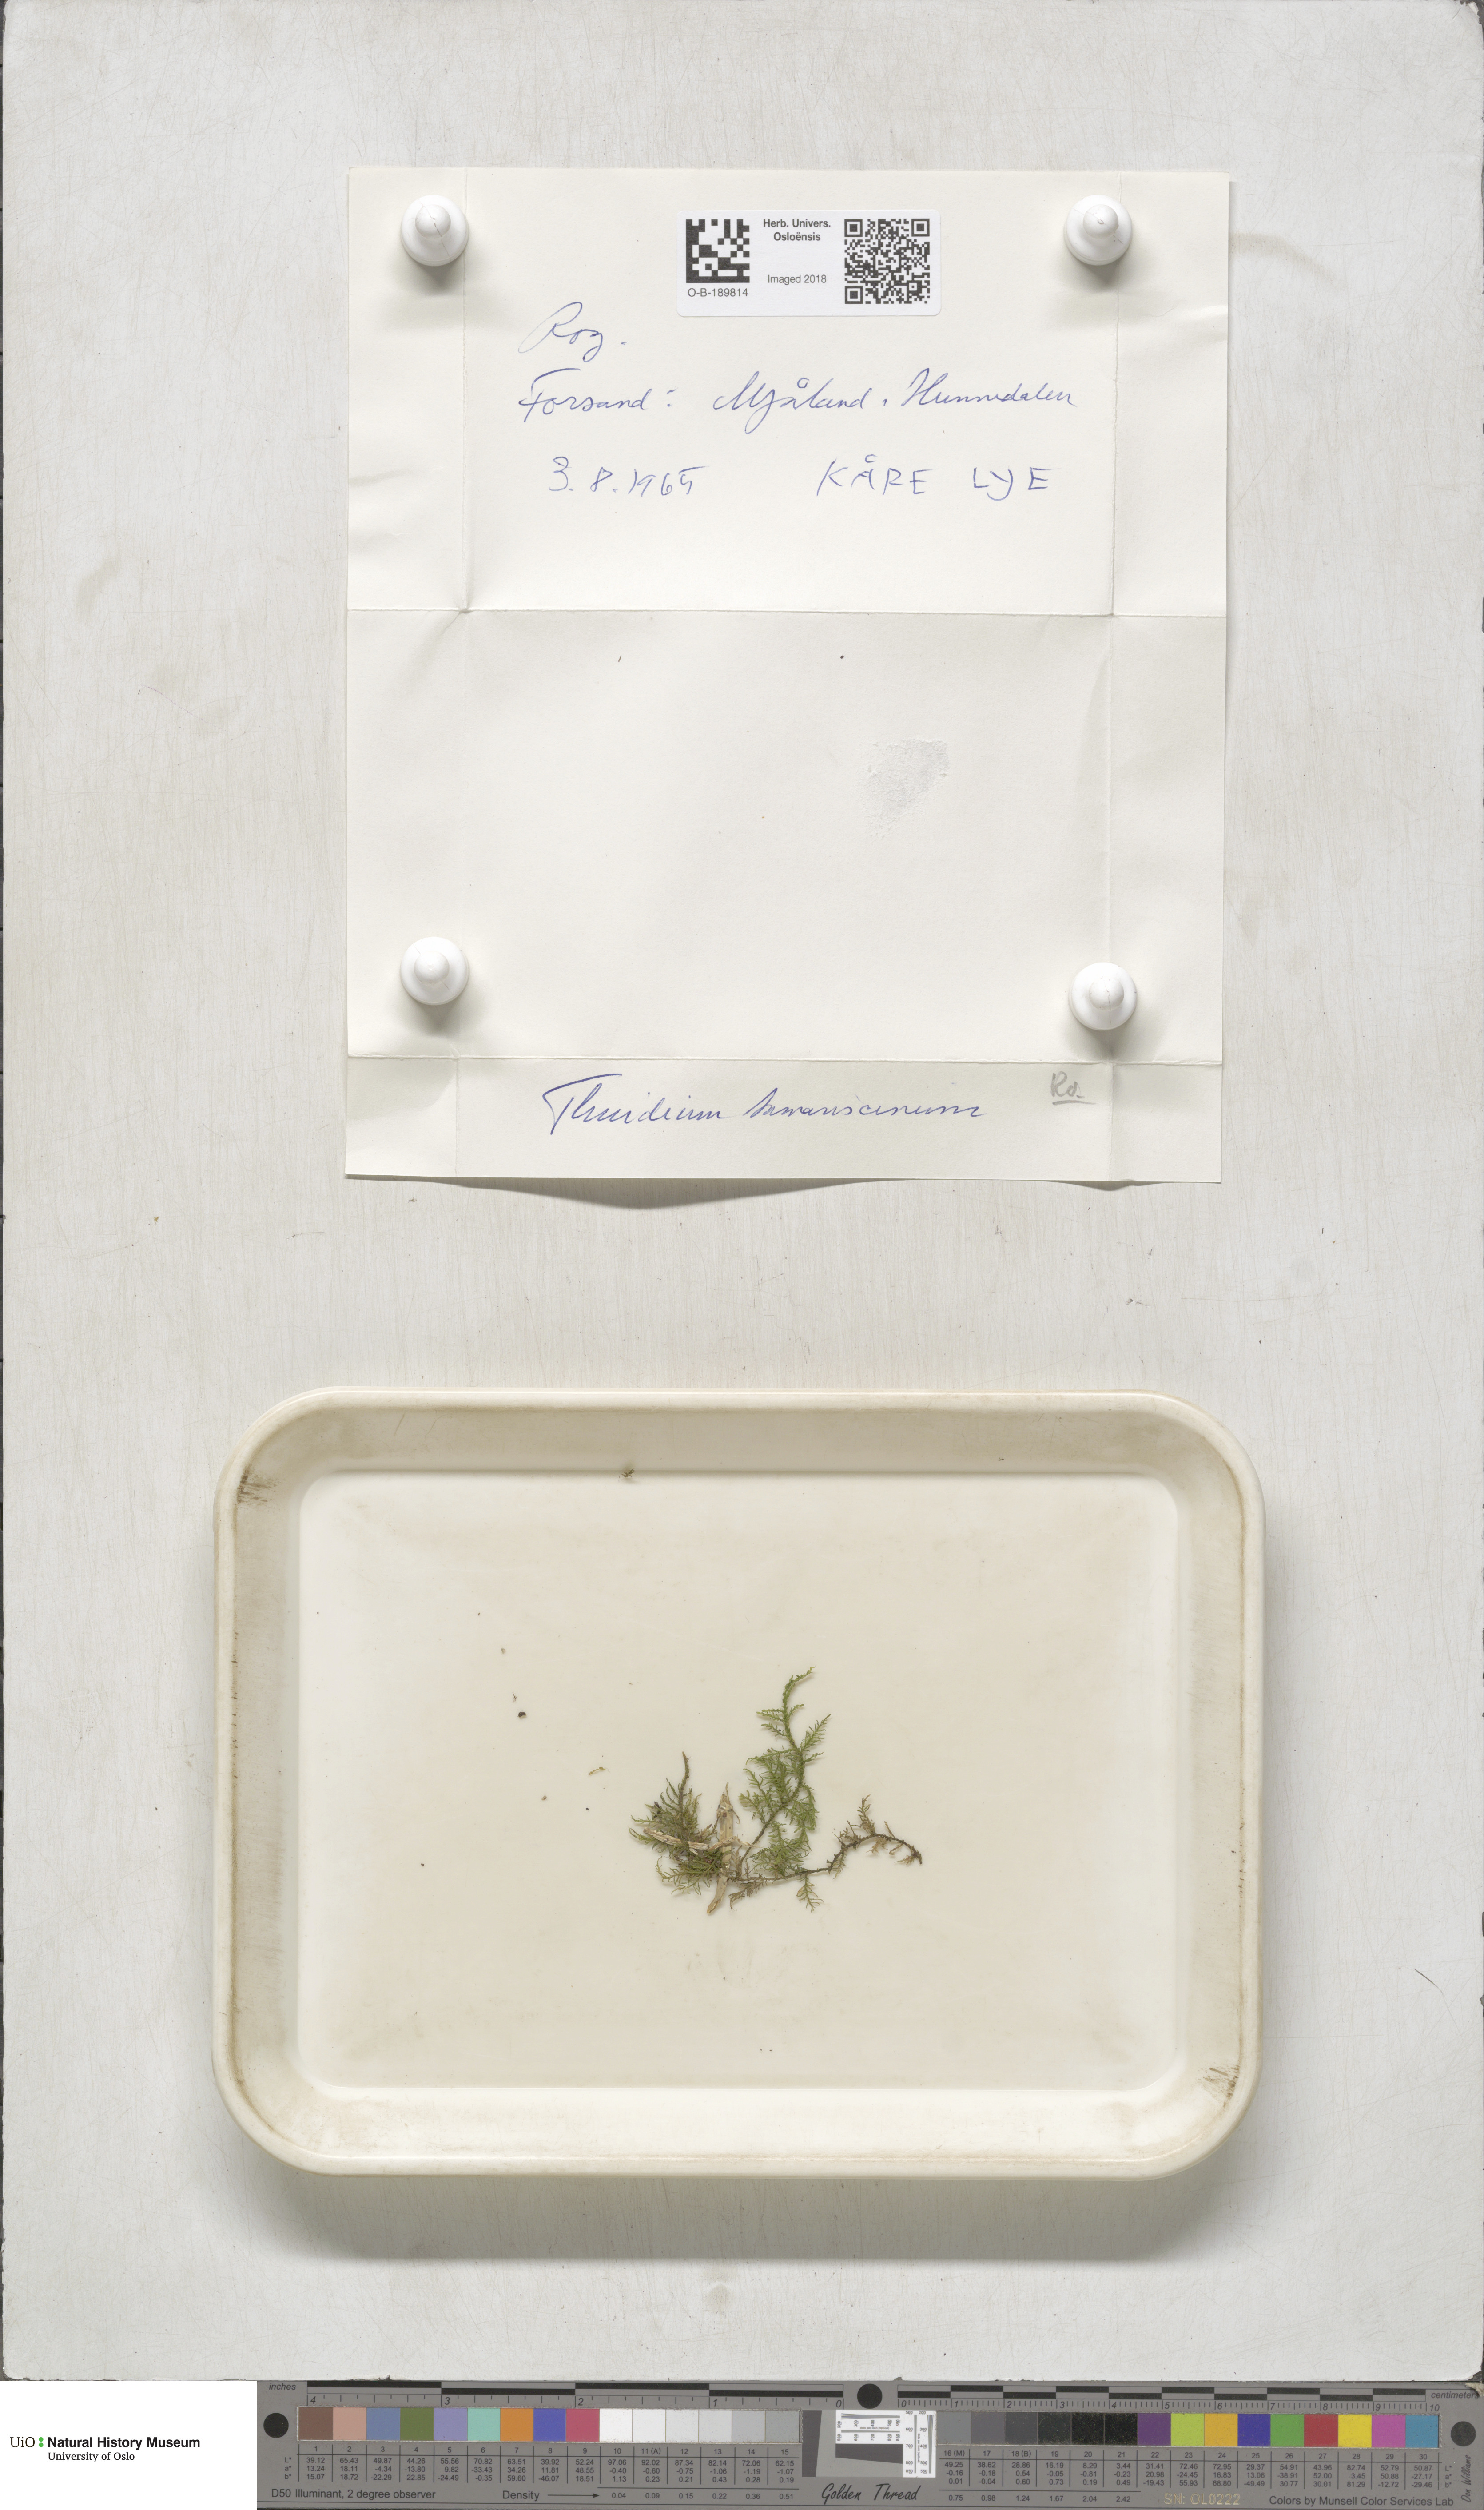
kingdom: Plantae
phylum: Bryophyta
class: Bryopsida
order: Hypnales
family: Thuidiaceae
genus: Thuidium
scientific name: Thuidium tamariscinum
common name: Common tamarisk-moss
